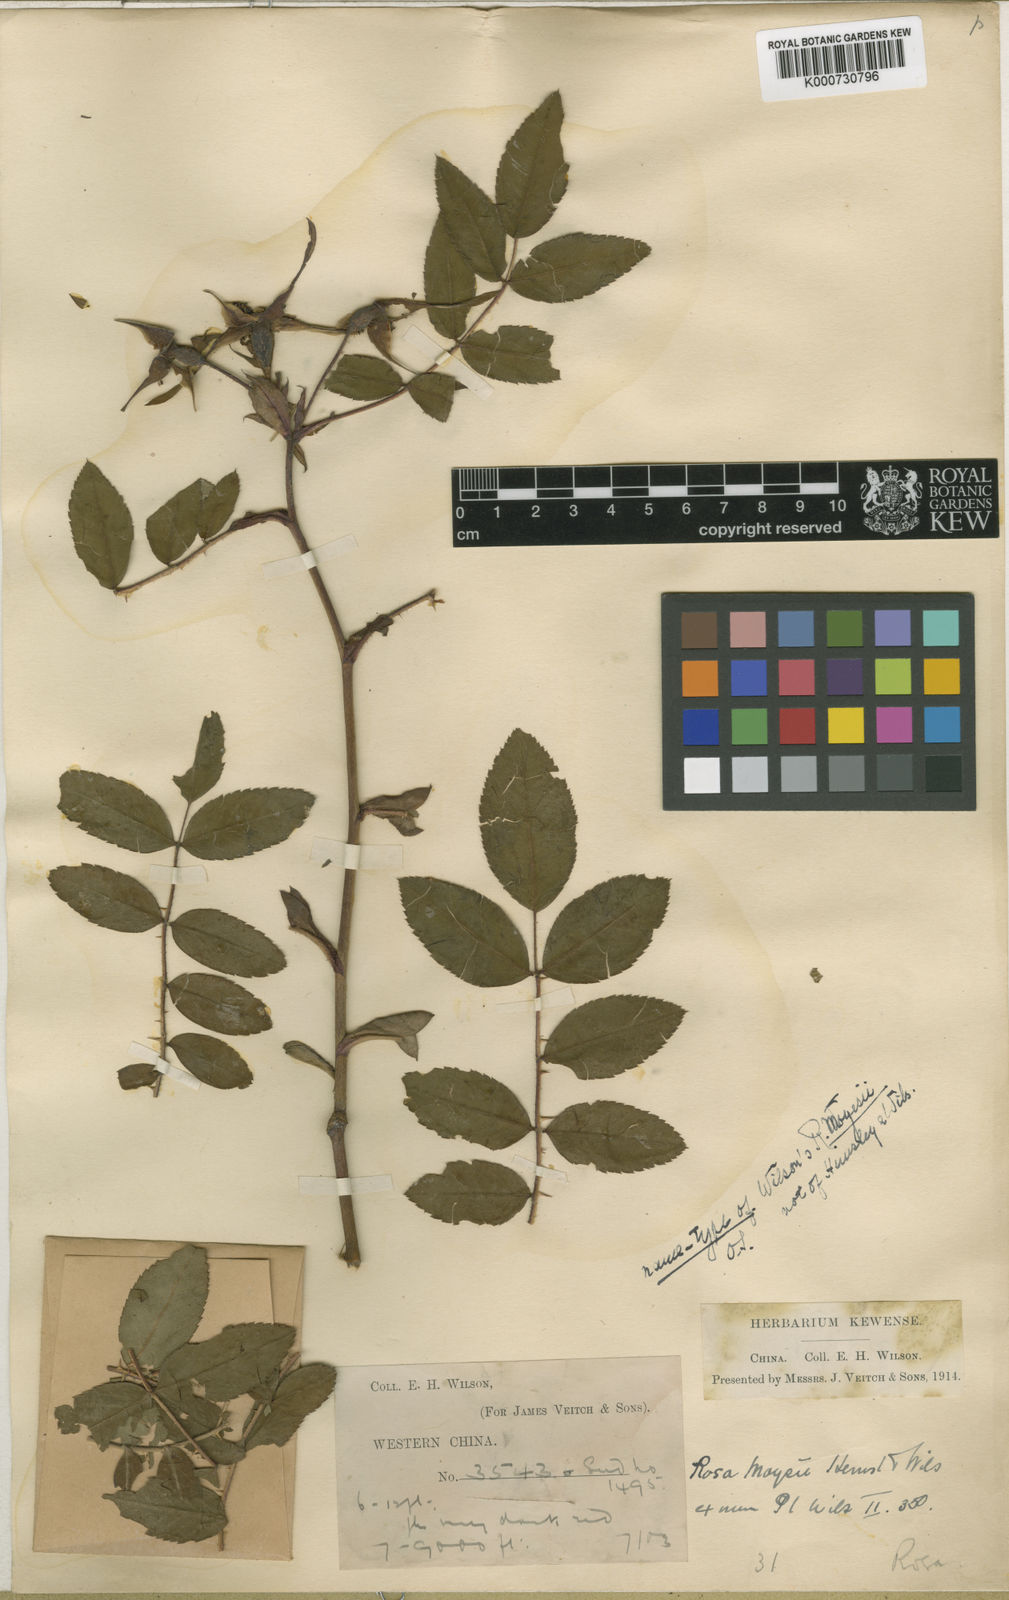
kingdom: Plantae
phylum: Tracheophyta
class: Magnoliopsida
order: Rosales
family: Rosaceae
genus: Rosa
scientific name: Rosa moyesii
